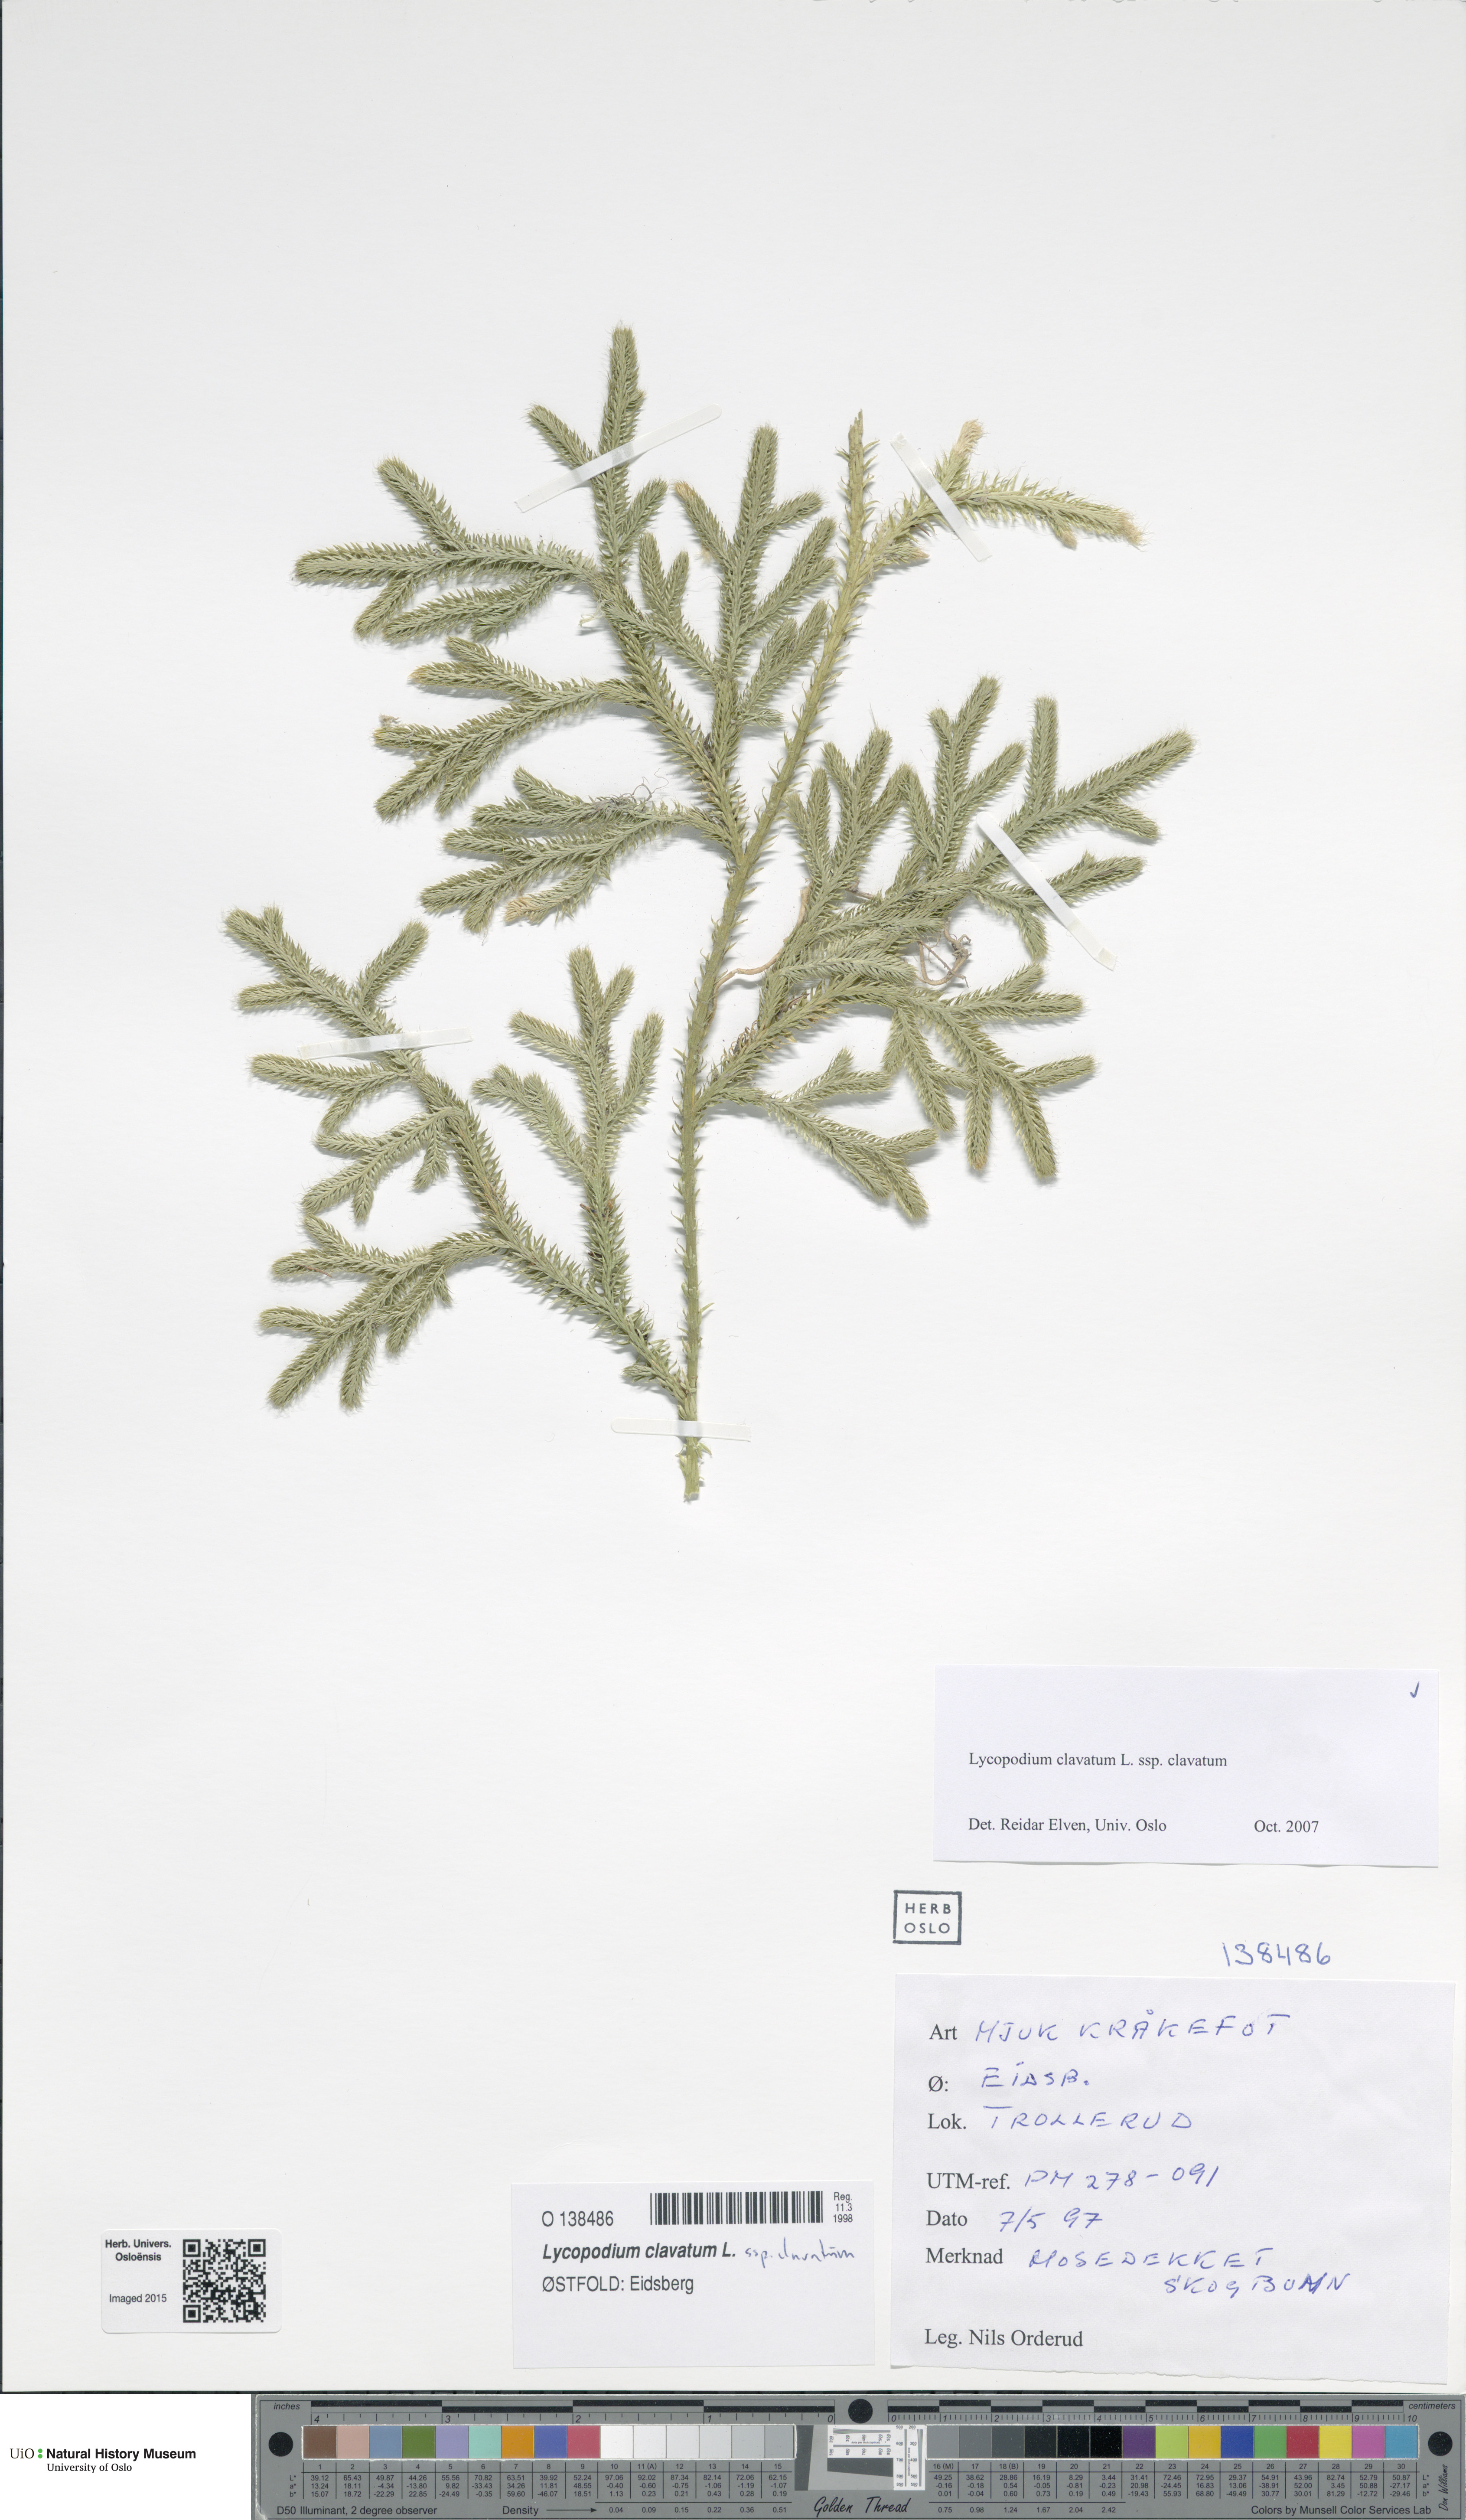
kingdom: Plantae
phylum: Tracheophyta
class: Lycopodiopsida
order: Lycopodiales
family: Lycopodiaceae
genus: Lycopodium
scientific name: Lycopodium clavatum
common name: Stag's-horn clubmoss
